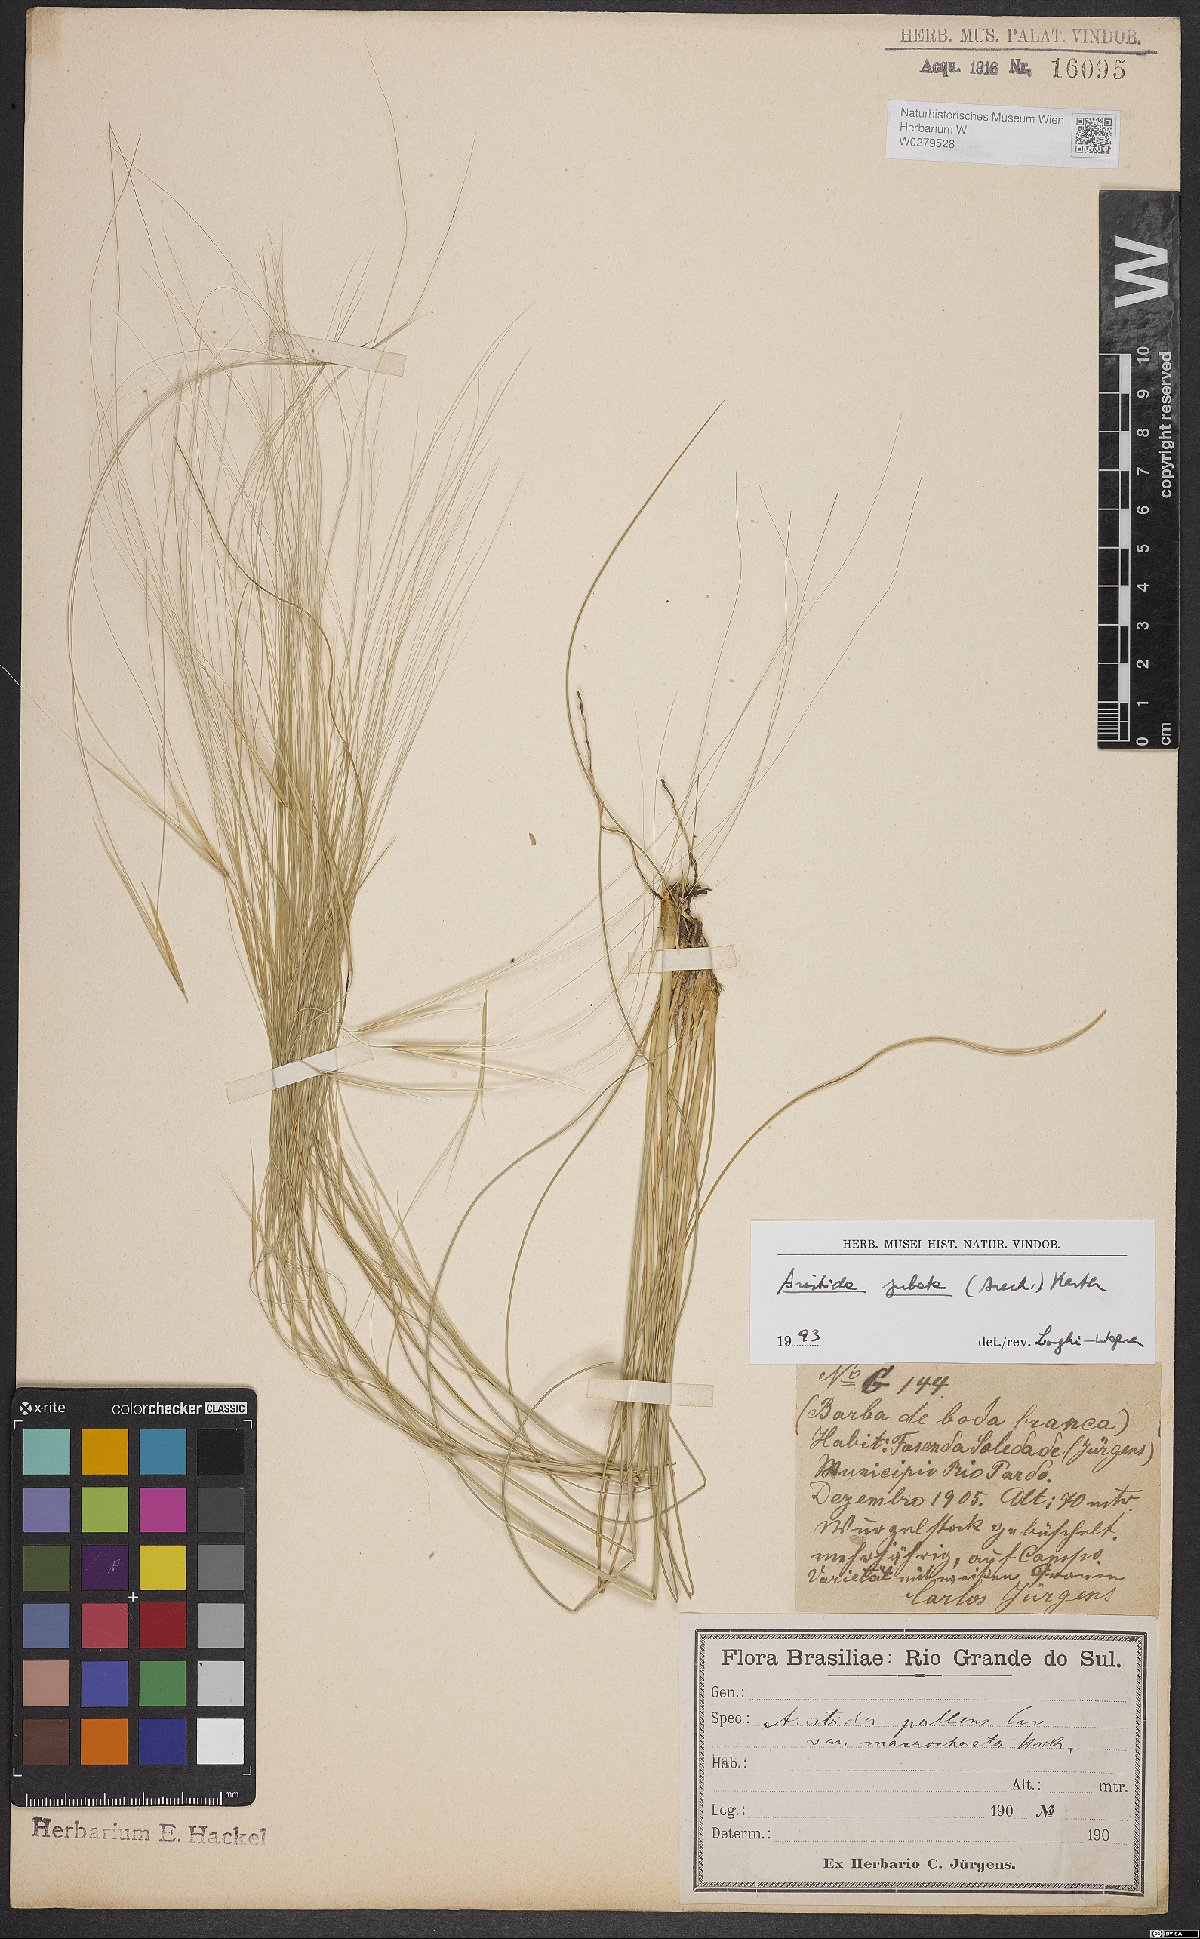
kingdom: Plantae
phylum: Tracheophyta
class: Liliopsida
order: Poales
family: Poaceae
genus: Aristida
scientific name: Aristida jubata
